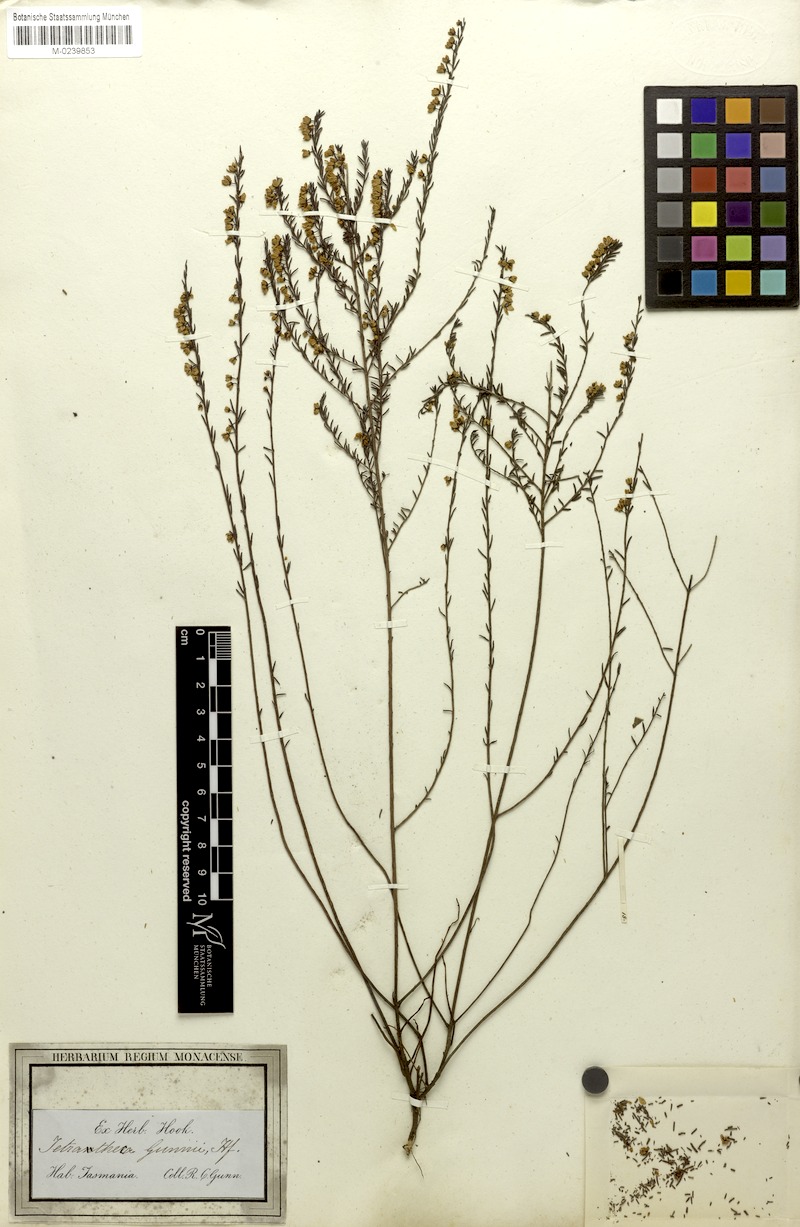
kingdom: Plantae
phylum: Tracheophyta
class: Magnoliopsida
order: Oxalidales
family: Elaeocarpaceae
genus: Tetratheca
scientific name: Tetratheca gunnii
